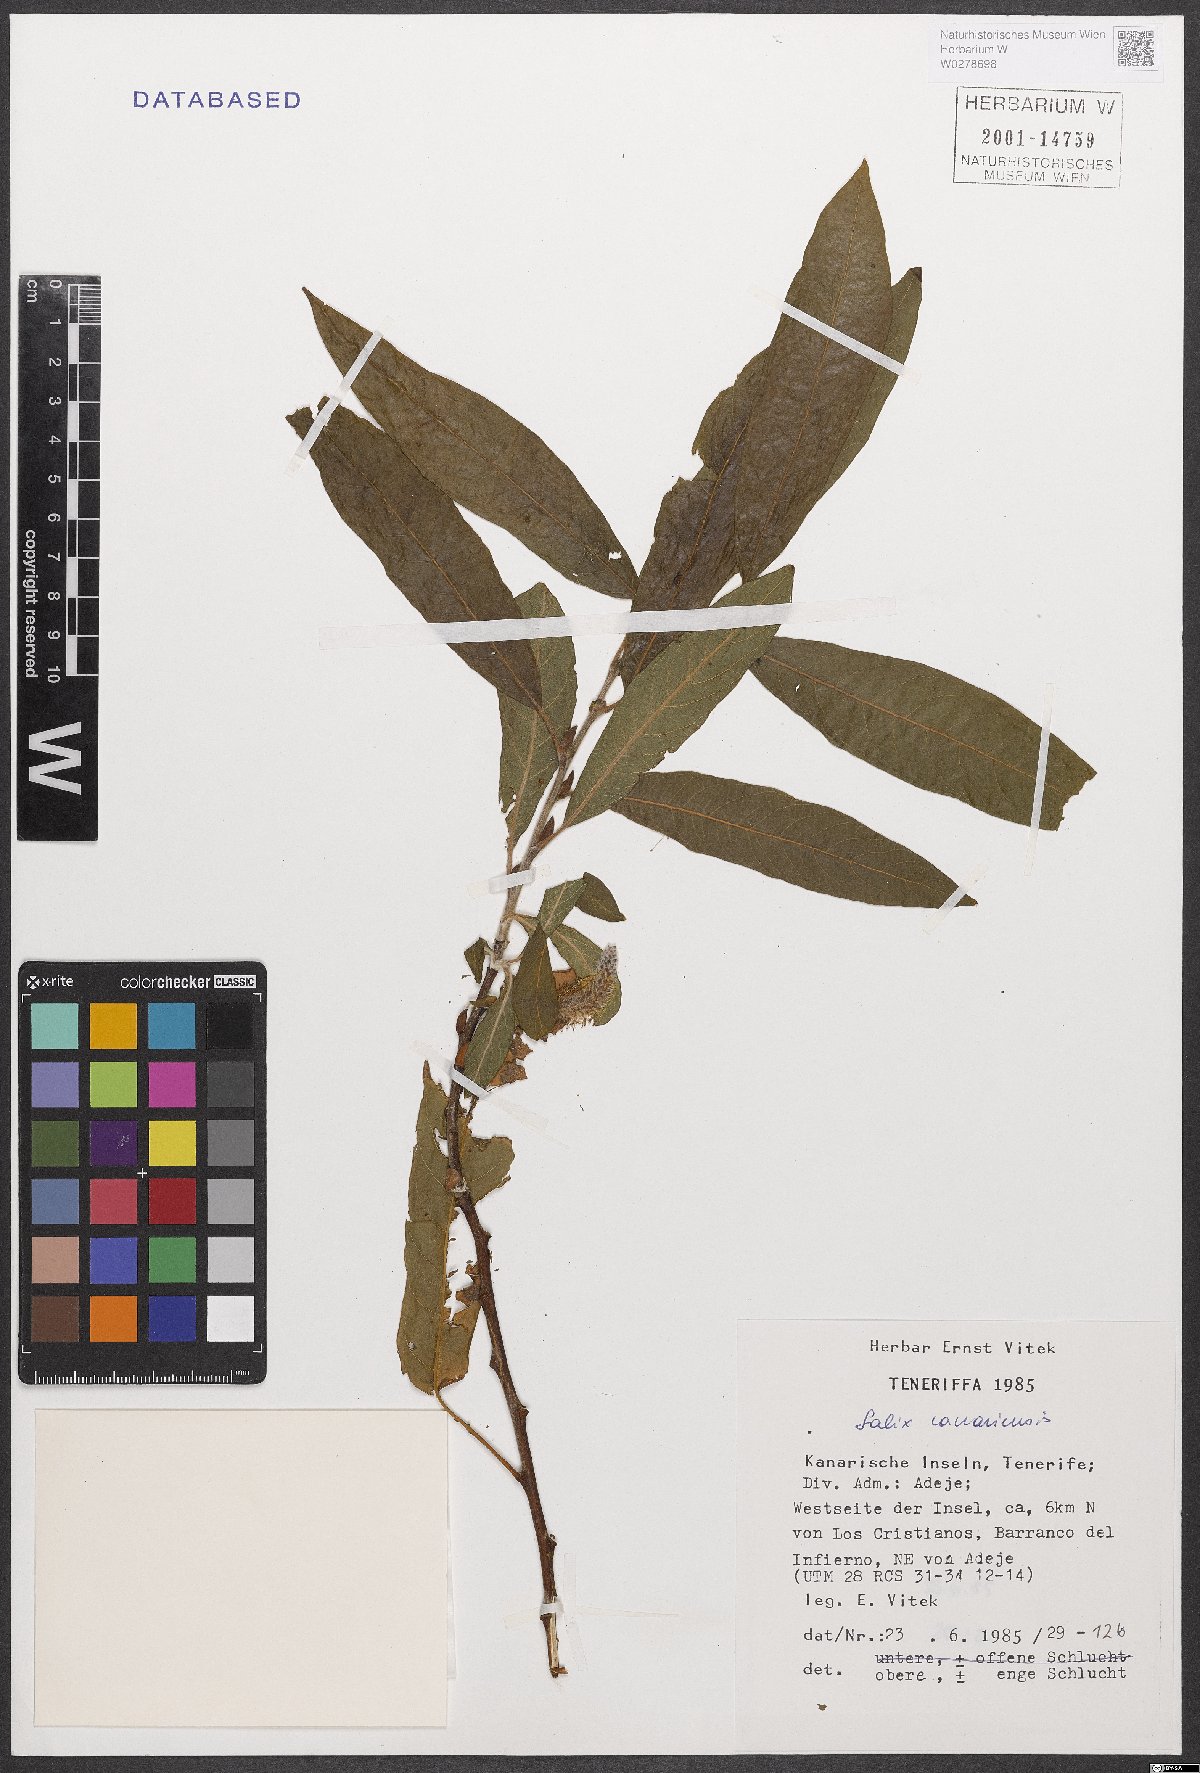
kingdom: Plantae
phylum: Tracheophyta
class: Magnoliopsida
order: Malpighiales
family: Salicaceae
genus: Salix
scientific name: Salix canariensis
